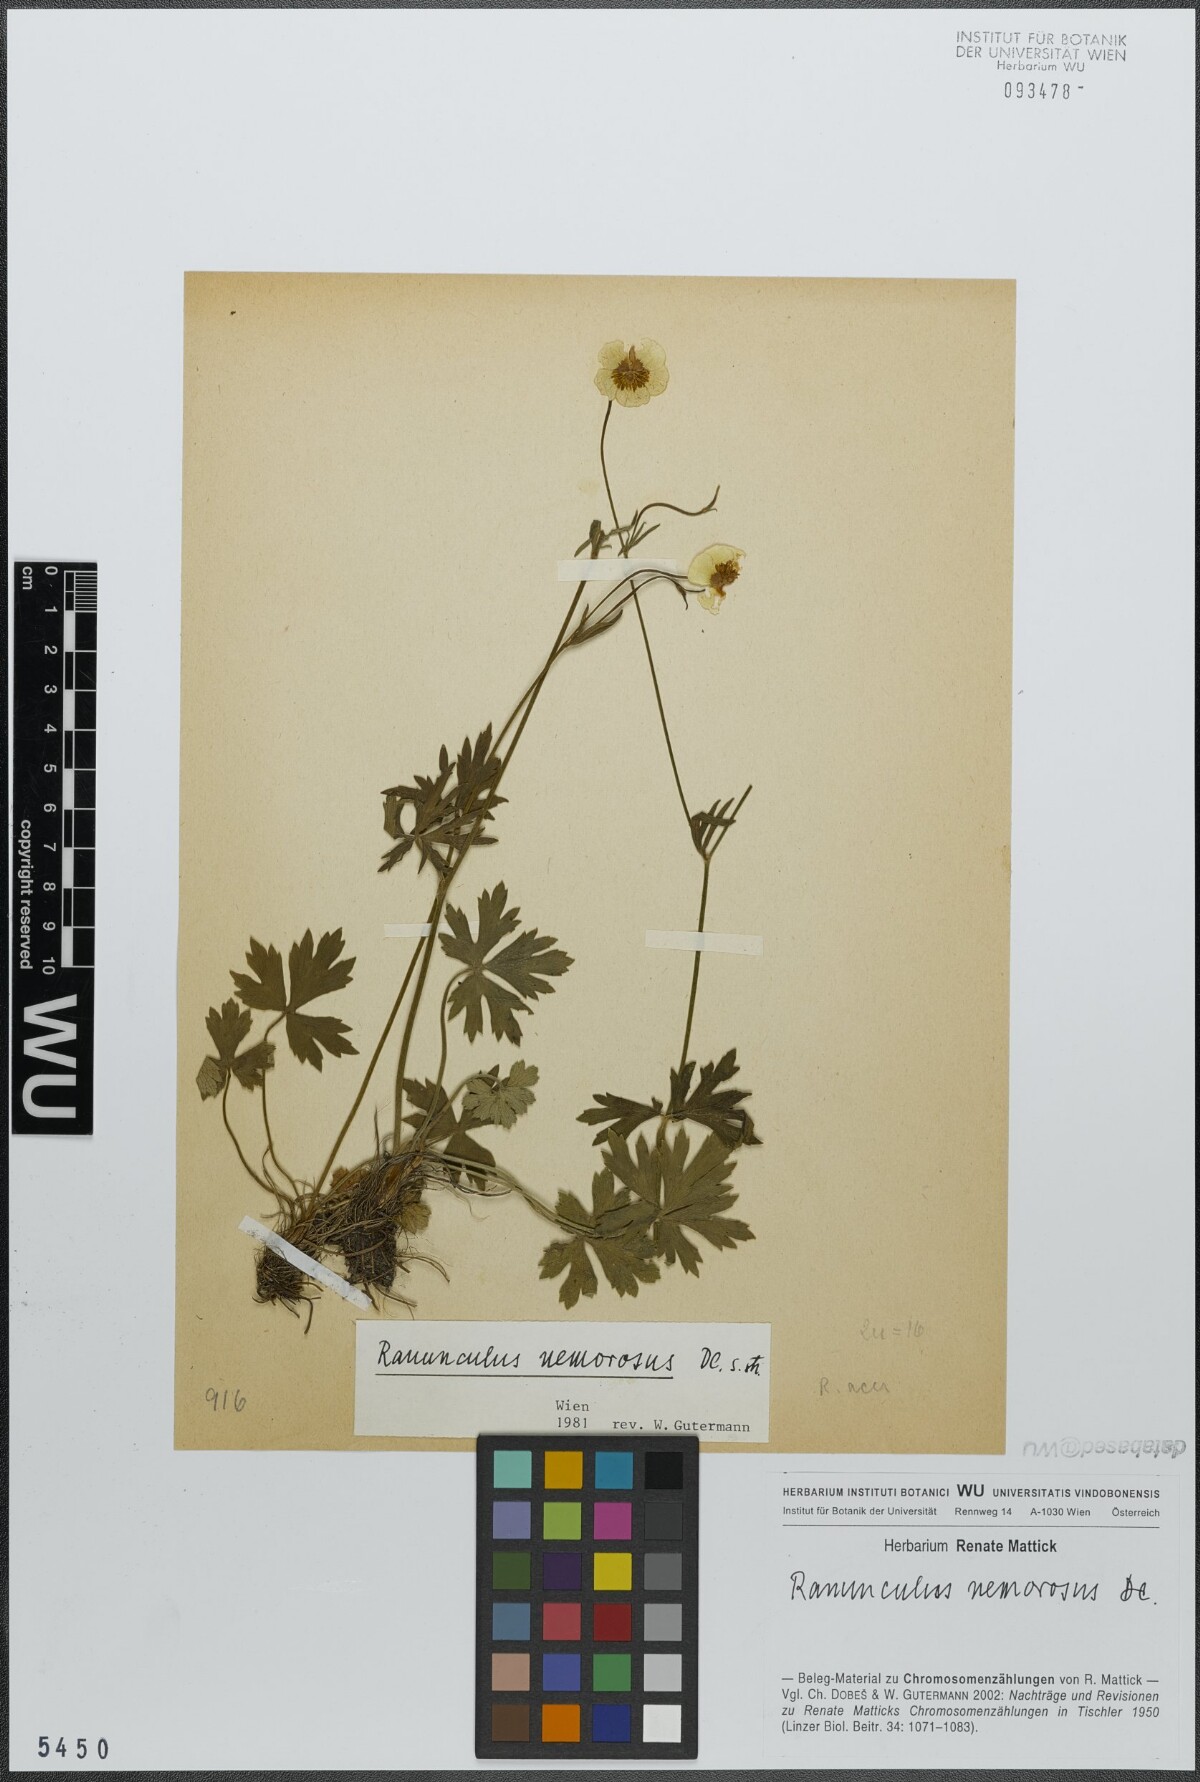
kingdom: Plantae
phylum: Tracheophyta
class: Magnoliopsida
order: Ranunculales
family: Ranunculaceae
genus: Ranunculus
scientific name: Ranunculus polyanthemos
